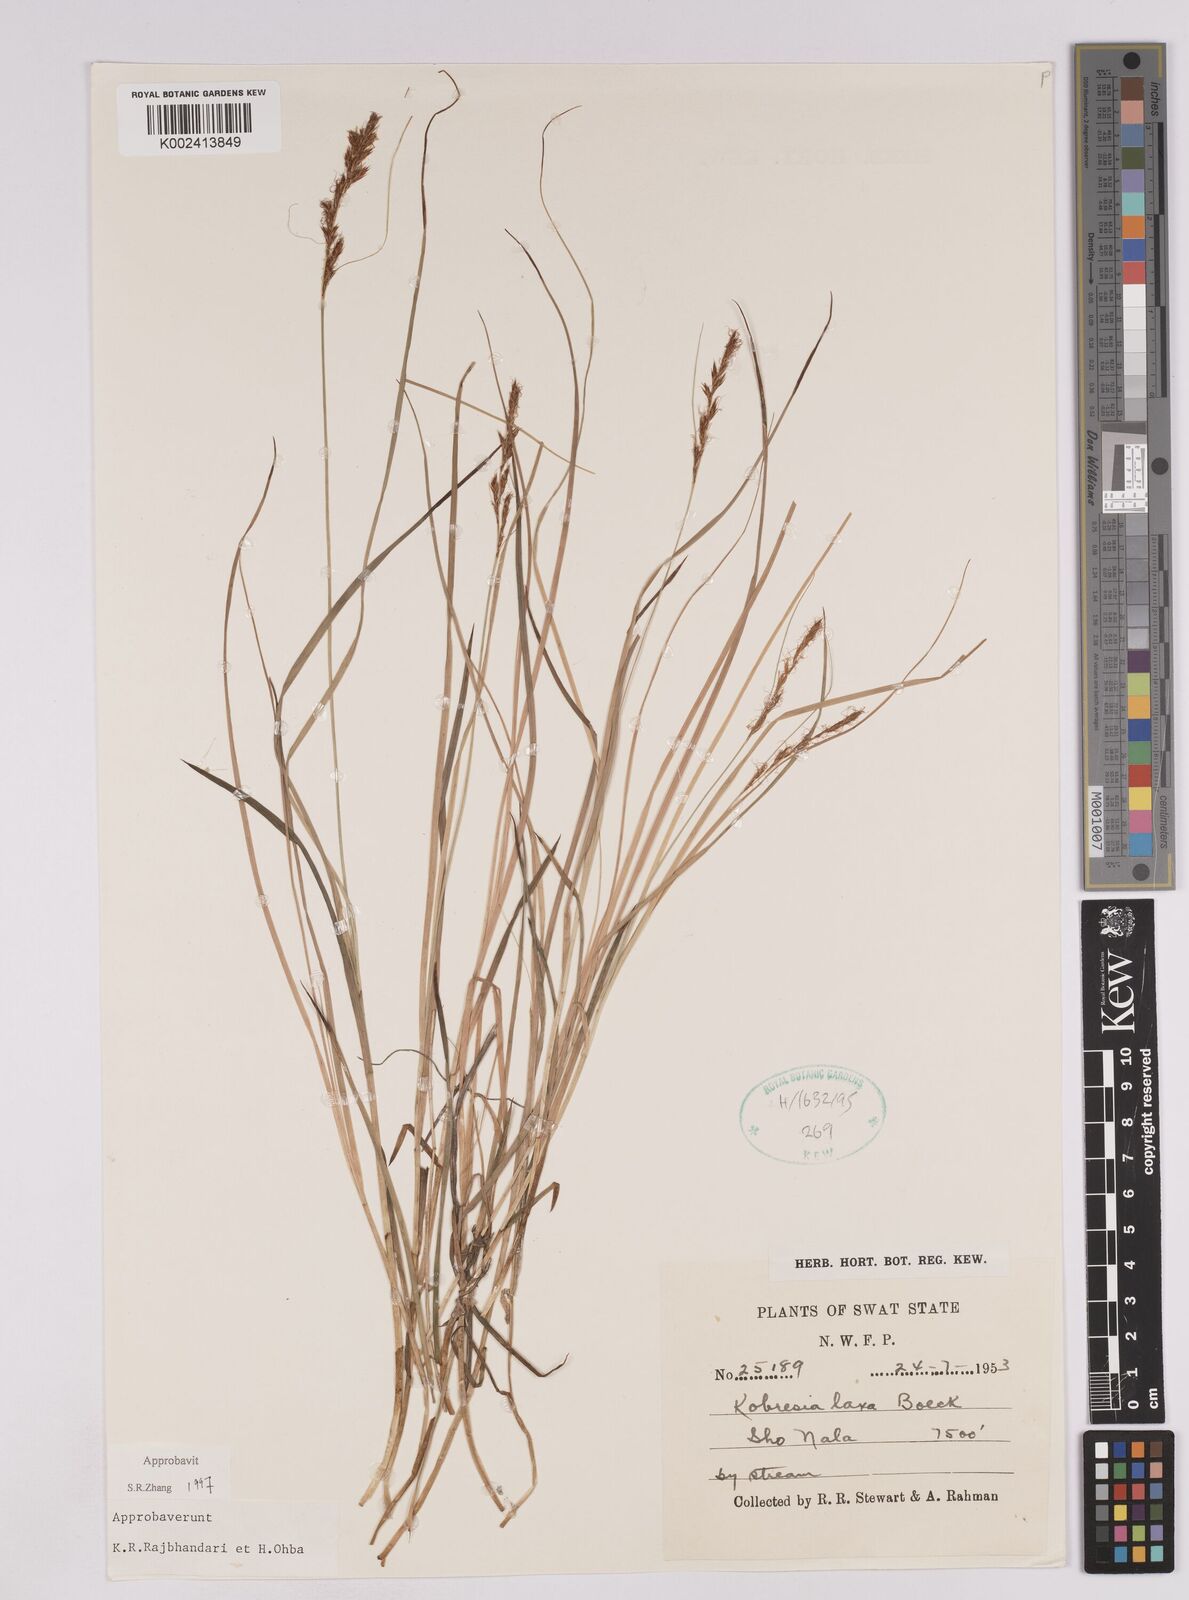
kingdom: Plantae
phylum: Tracheophyta
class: Liliopsida
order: Poales
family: Cyperaceae
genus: Carex
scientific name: Carex pseudolaxa
